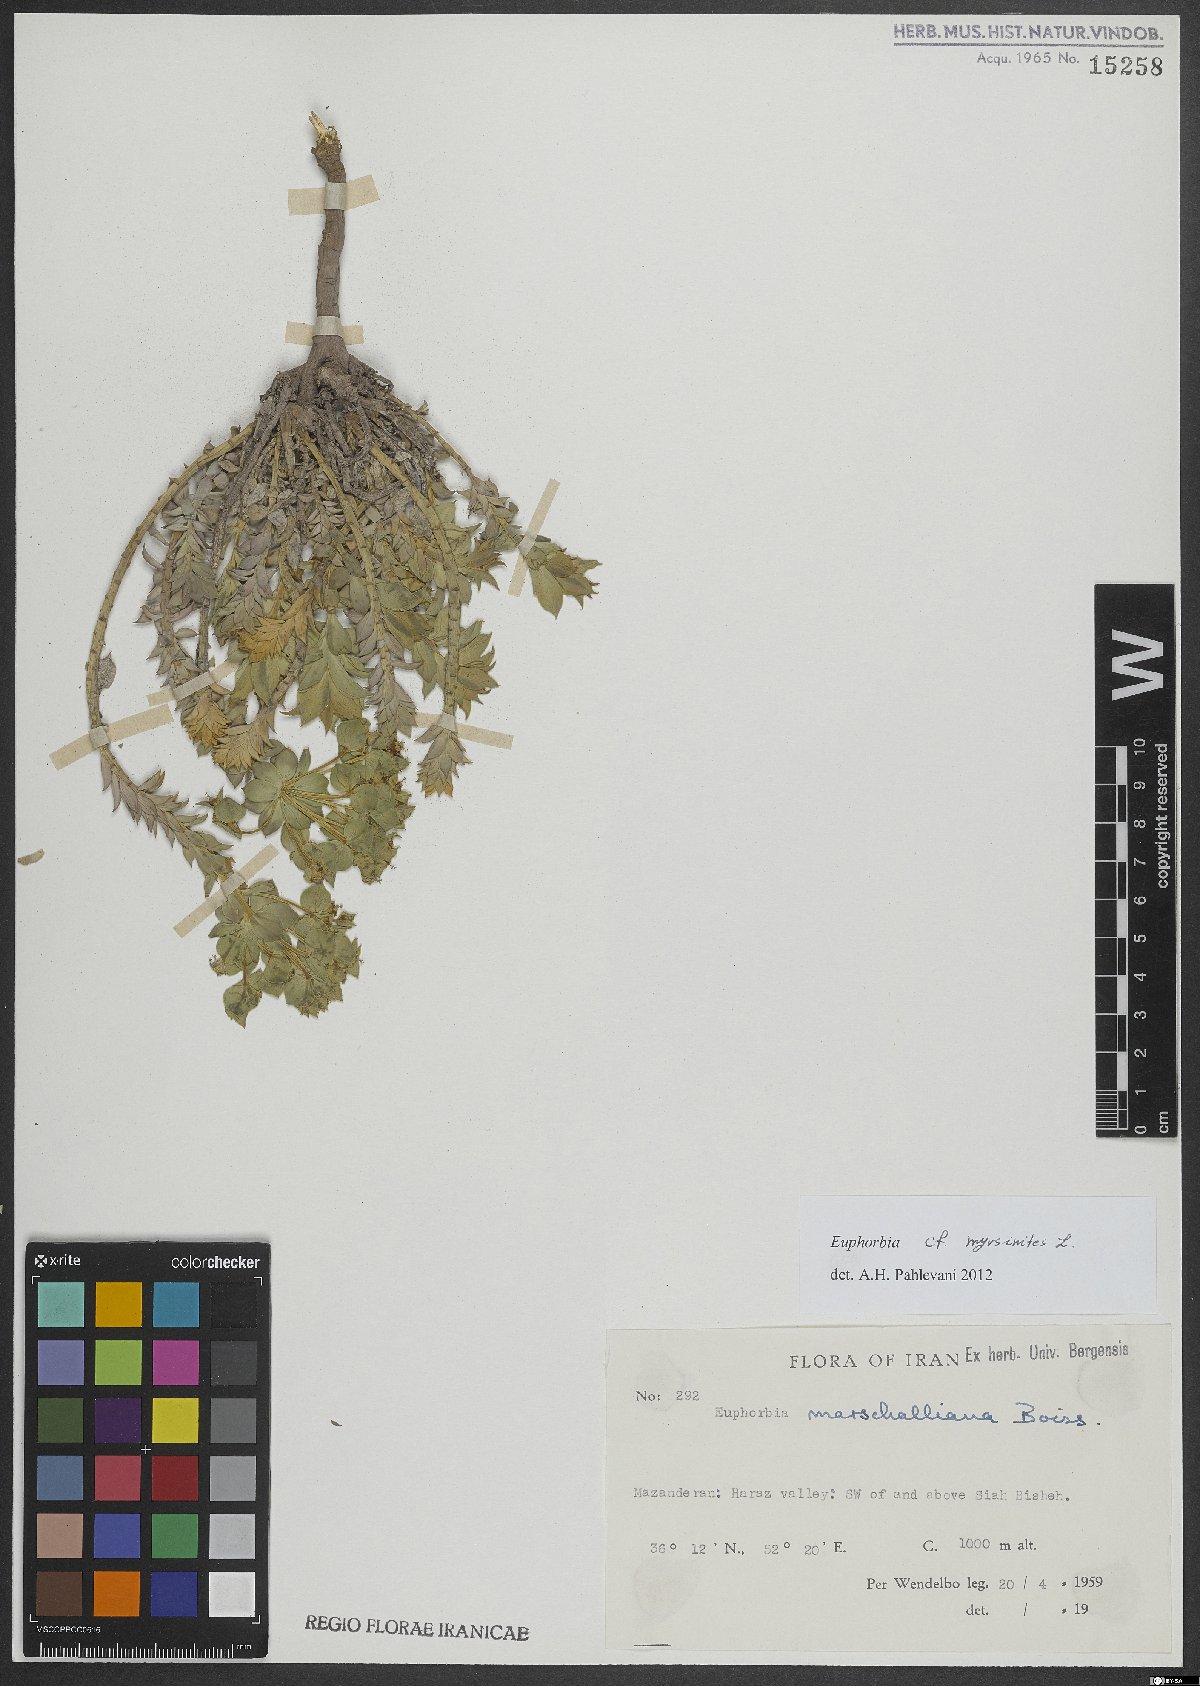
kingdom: Plantae
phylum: Tracheophyta
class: Magnoliopsida
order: Malpighiales
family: Euphorbiaceae
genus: Euphorbia
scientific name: Euphorbia myrsinites
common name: Myrtle spurge
